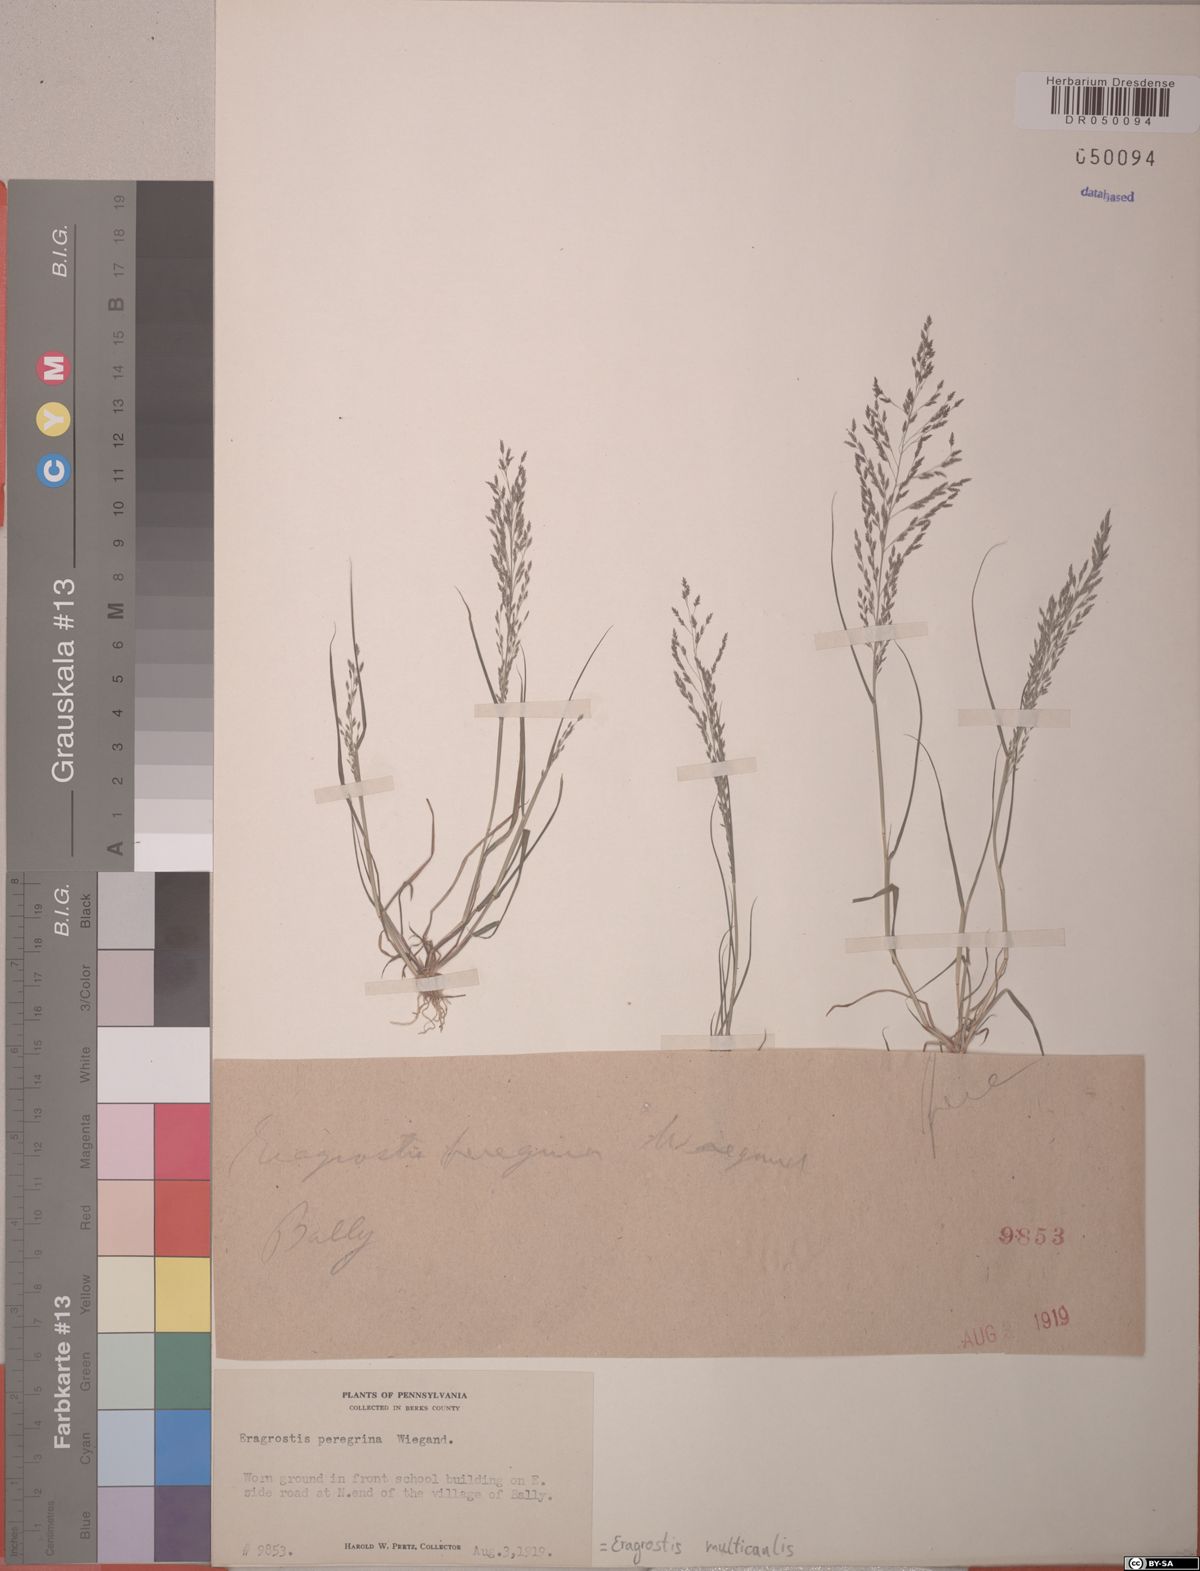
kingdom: Plantae
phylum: Tracheophyta
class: Liliopsida
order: Poales
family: Poaceae
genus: Eragrostis
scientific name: Eragrostis multicaulis
